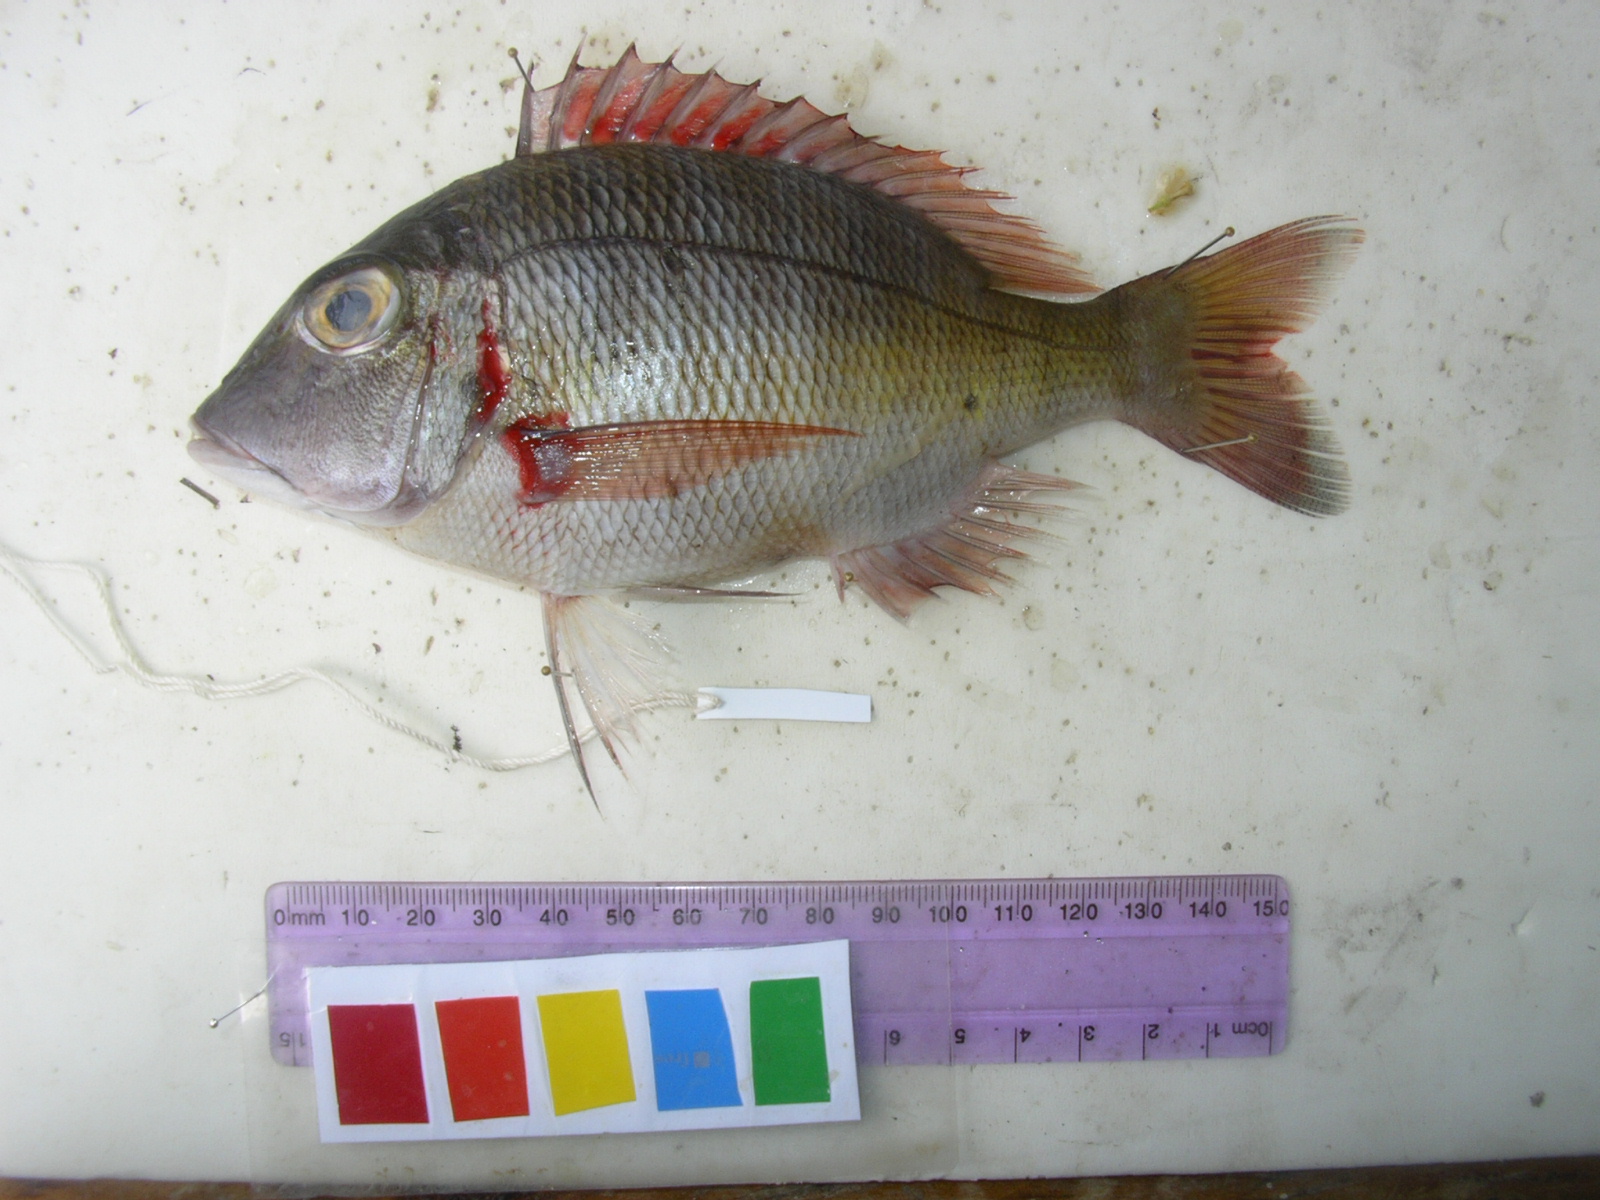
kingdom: Animalia
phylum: Chordata
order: Perciformes
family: Lethrinidae
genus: Lethrinus
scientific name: Lethrinus mahsena
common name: Sky emperor
